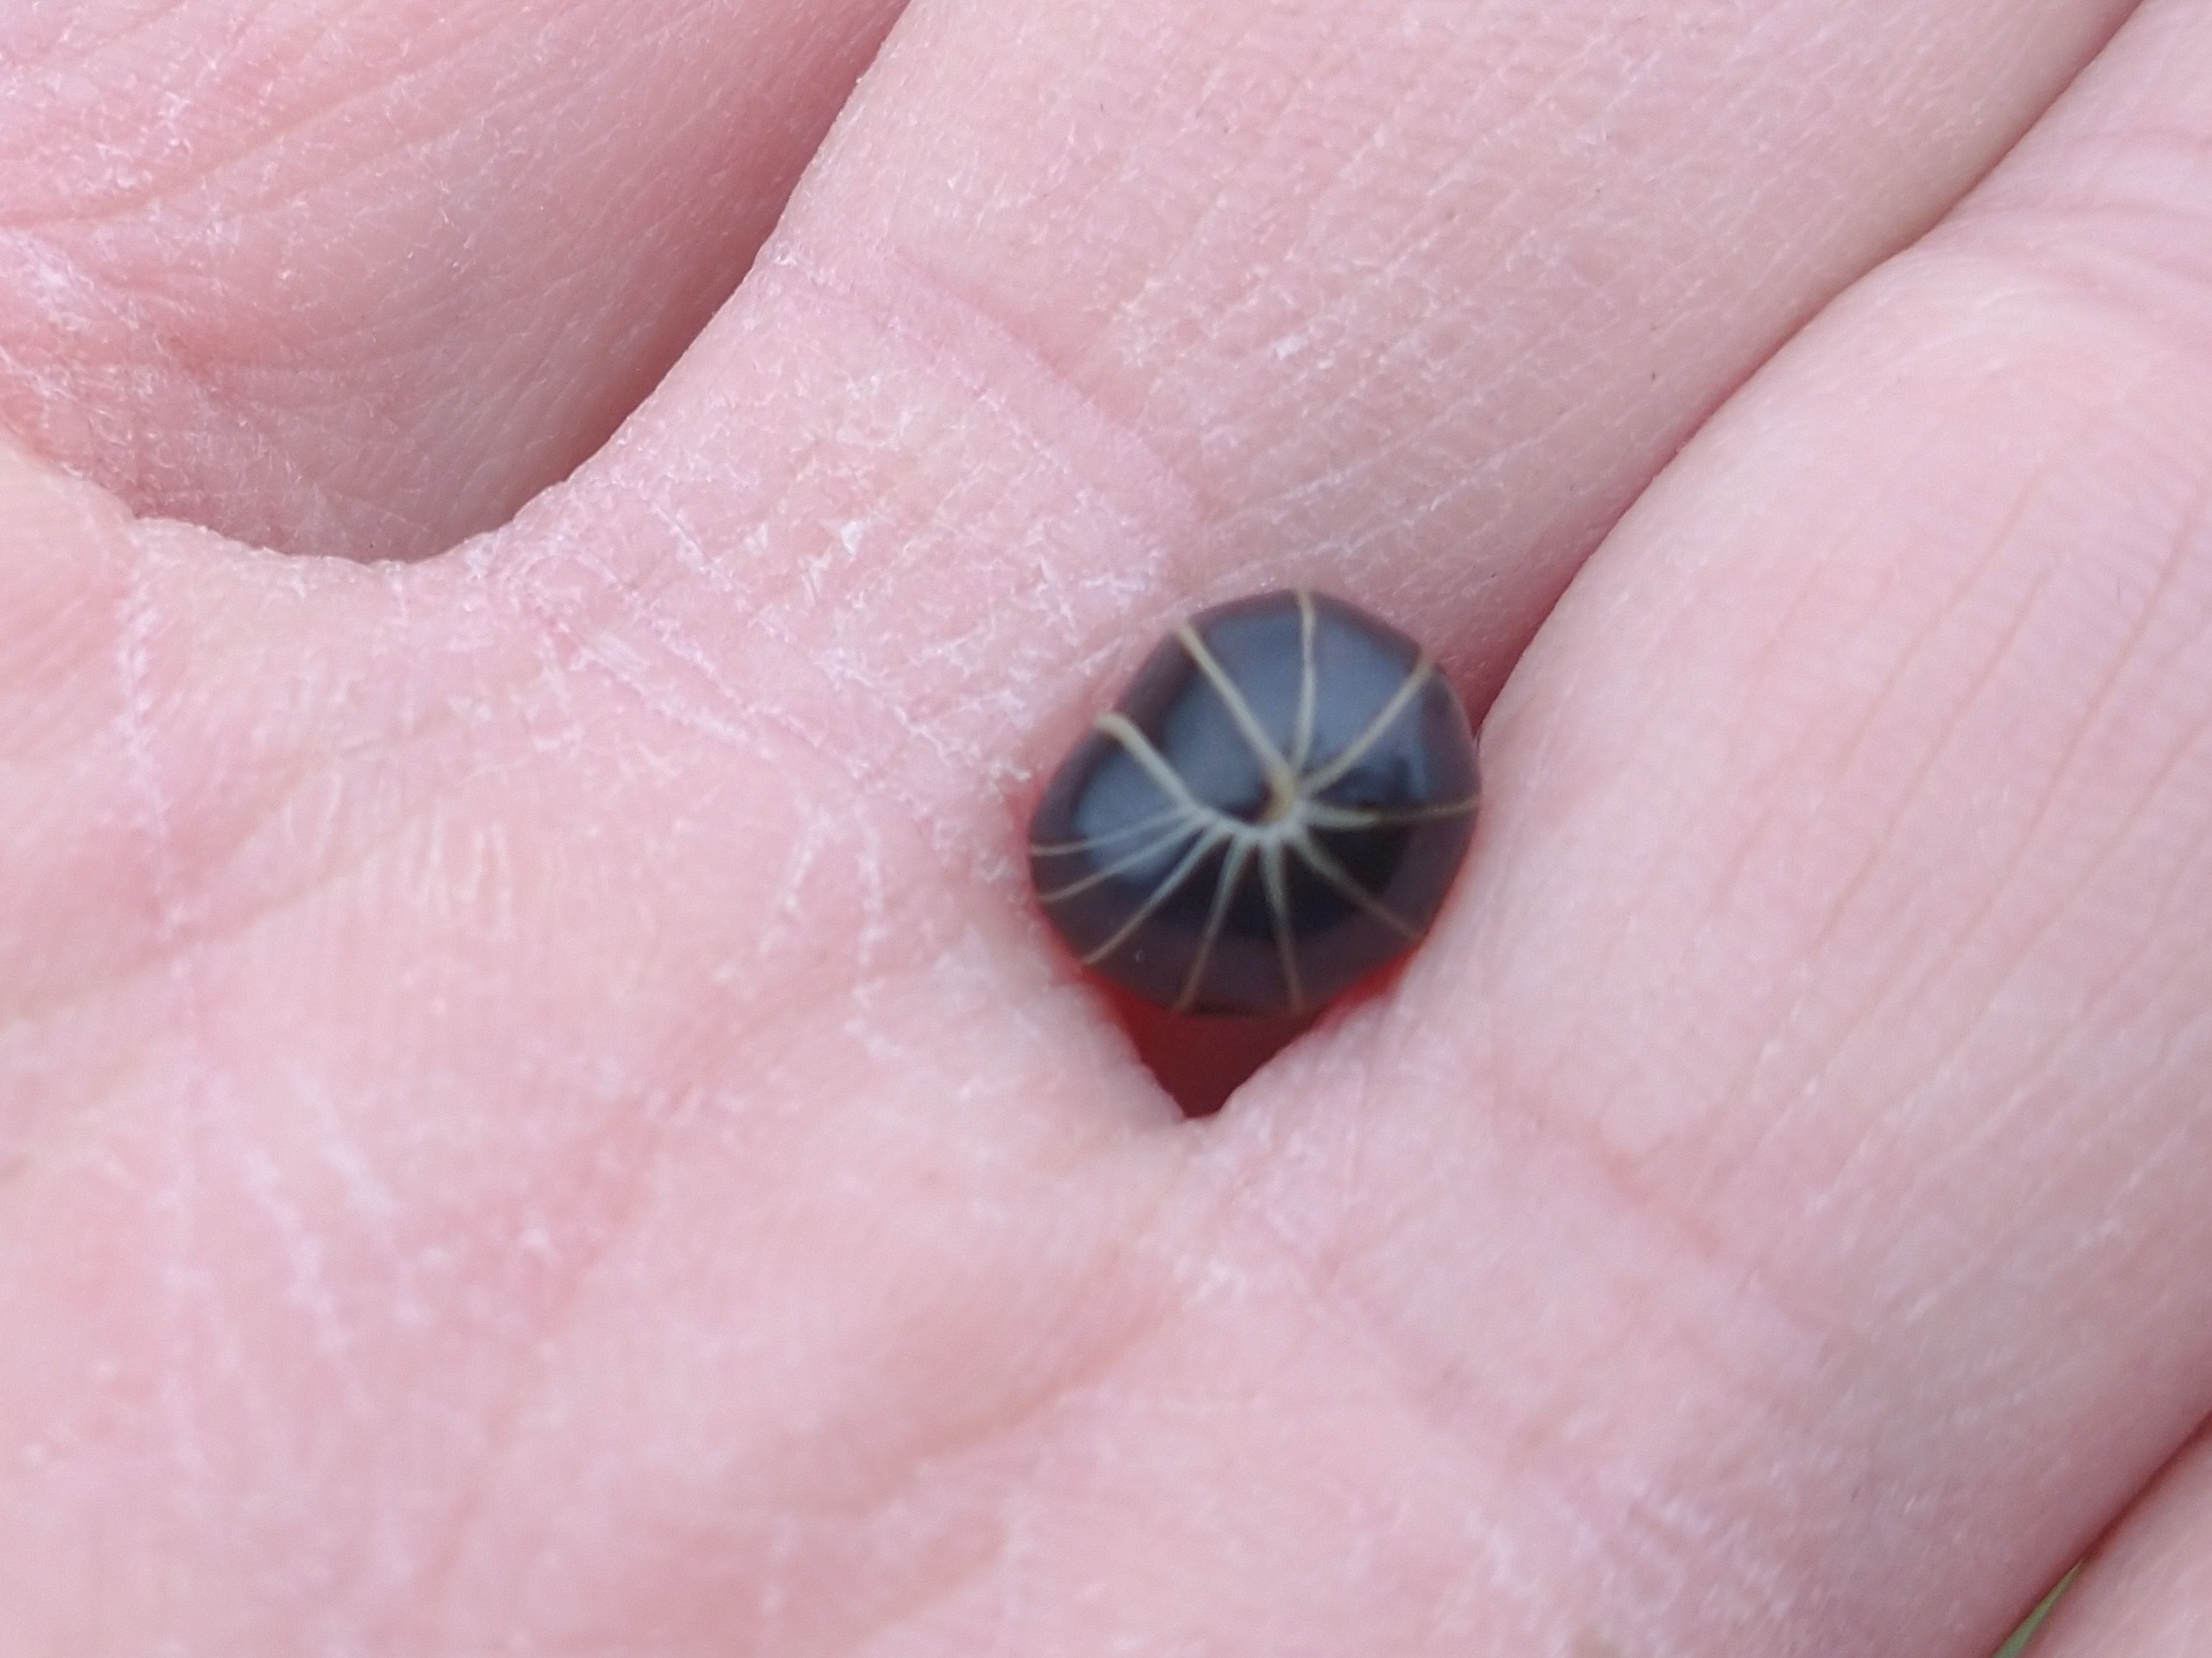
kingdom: Animalia
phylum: Arthropoda
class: Diplopoda
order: Glomerida
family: Glomeridae
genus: Glomeris
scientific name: Glomeris marginata
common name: Kugletusindben
